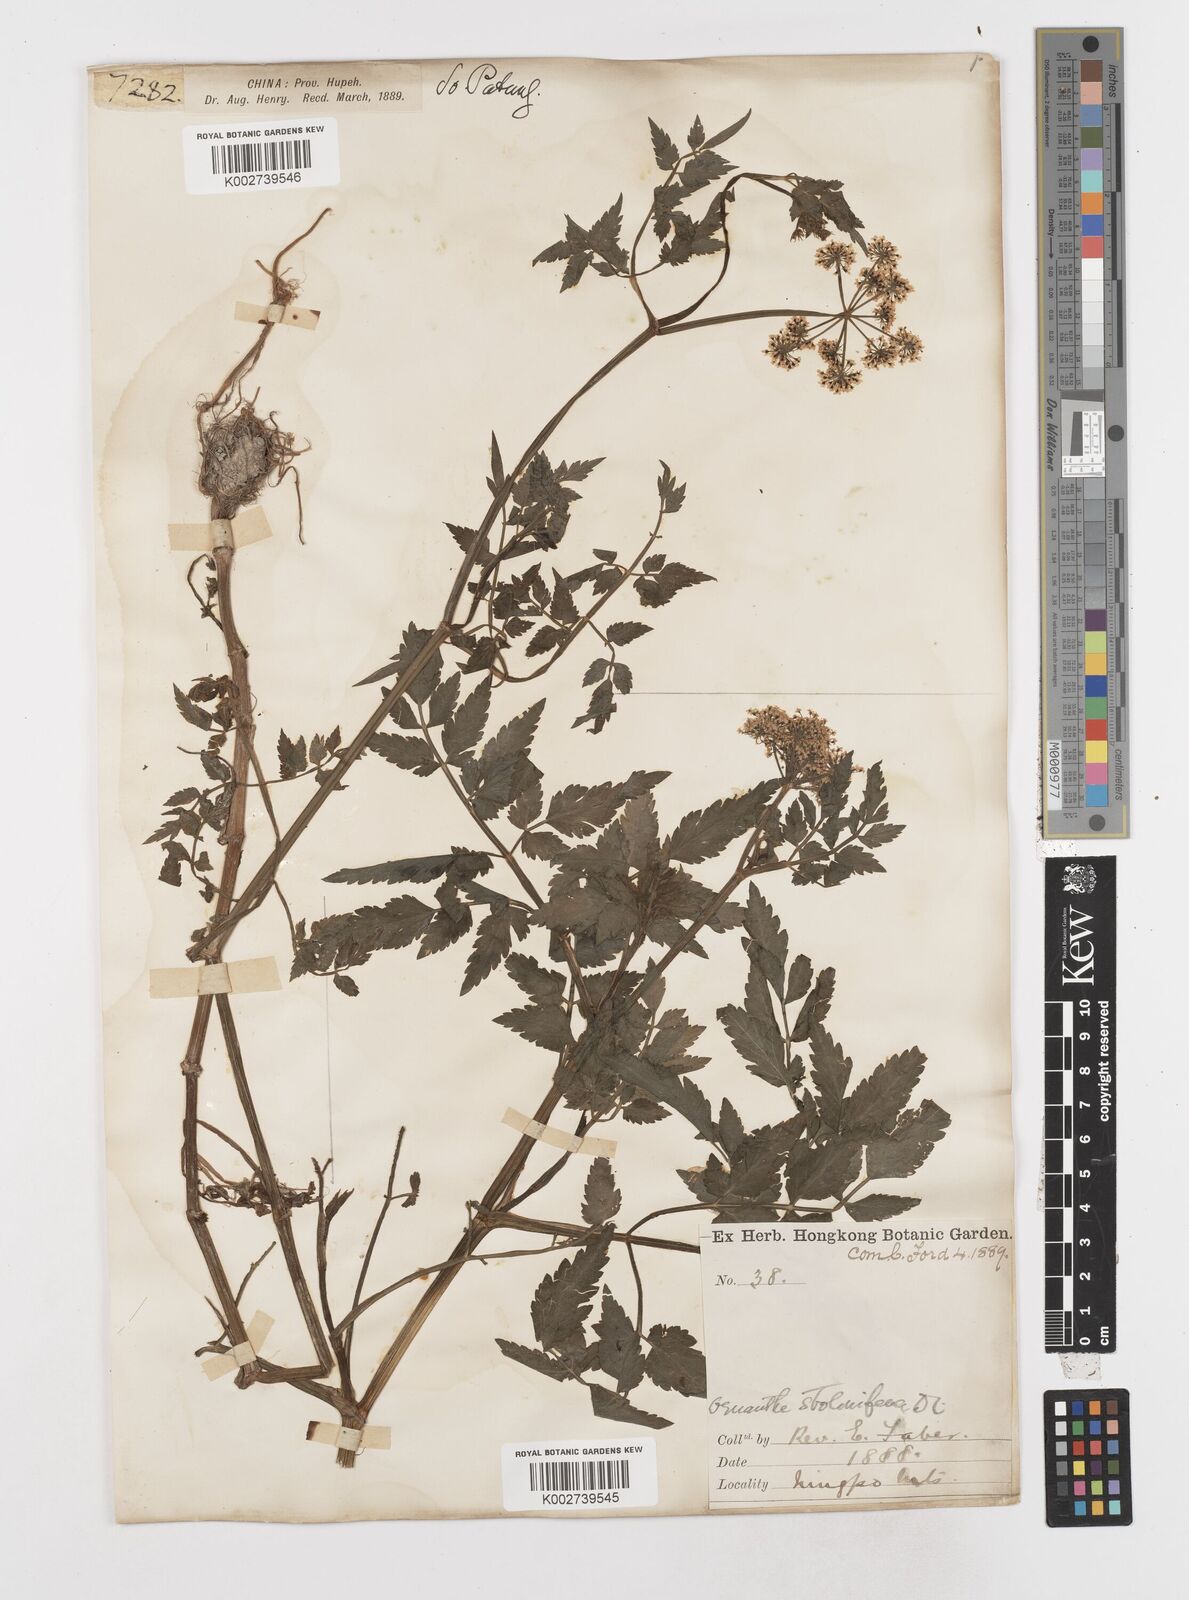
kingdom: Plantae
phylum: Tracheophyta
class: Magnoliopsida
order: Apiales
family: Apiaceae
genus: Oenanthe
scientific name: Oenanthe javanica
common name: Java water-dropwort
